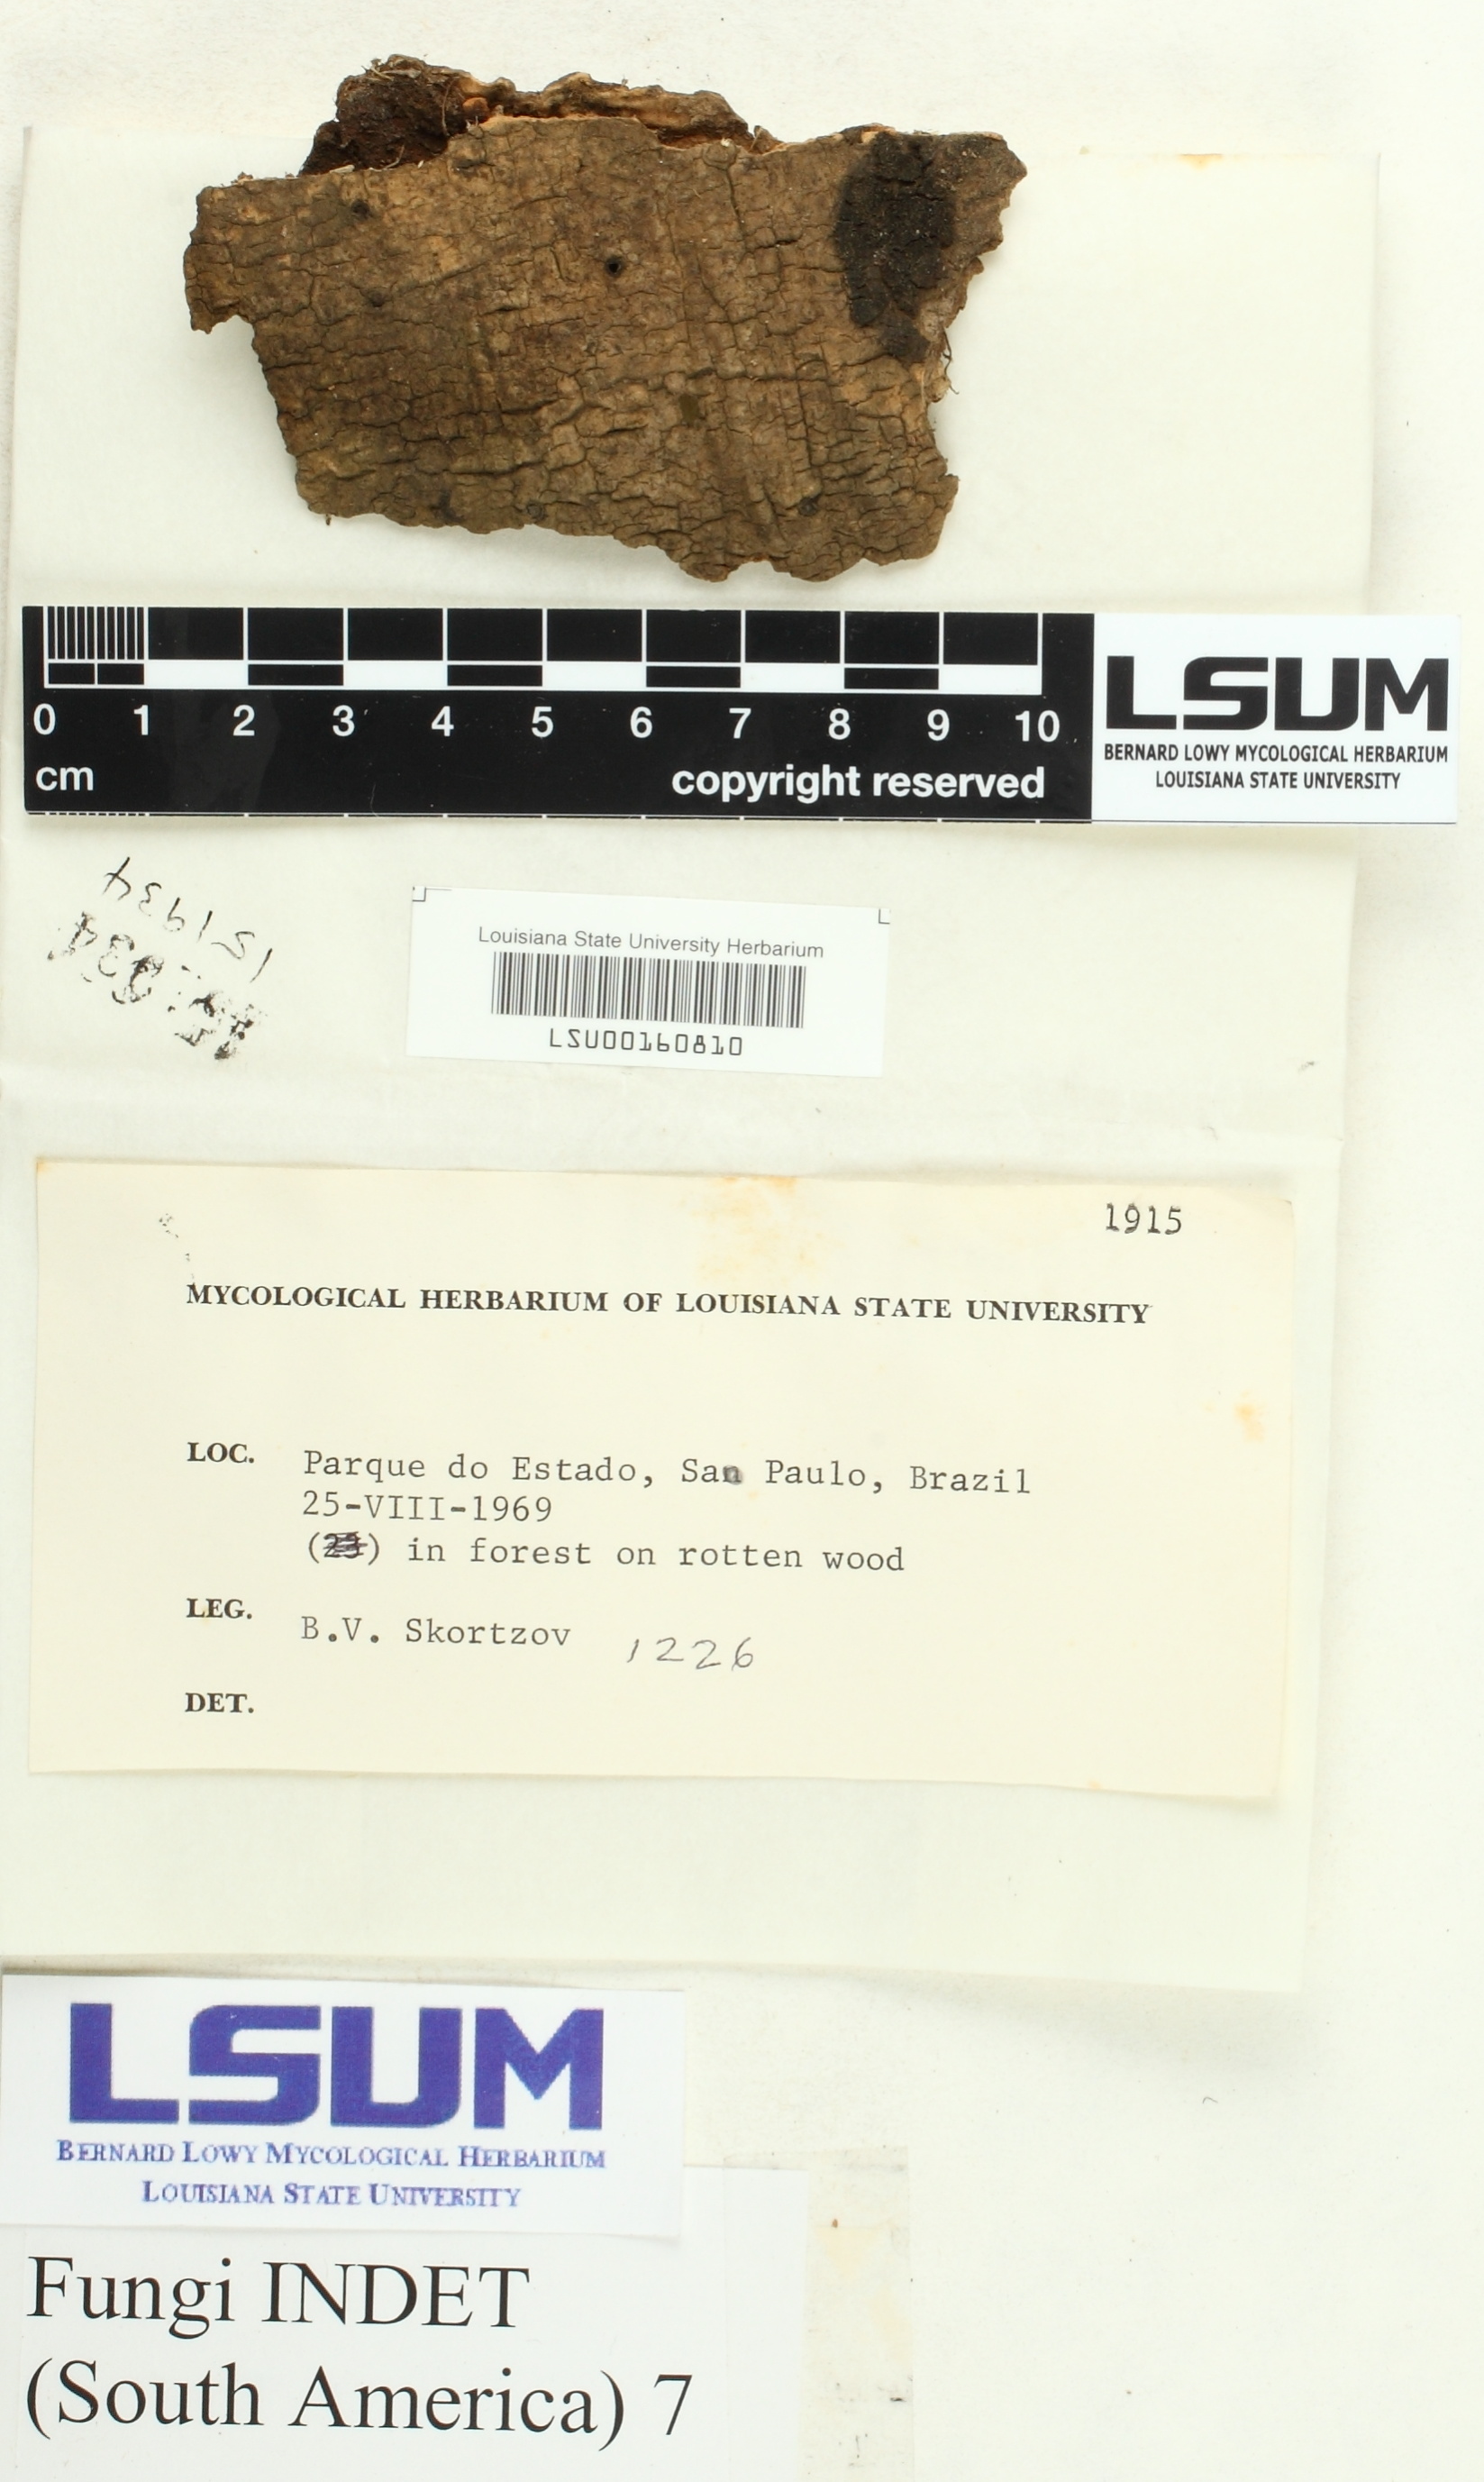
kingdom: Fungi
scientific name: Fungi
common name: Fungi
